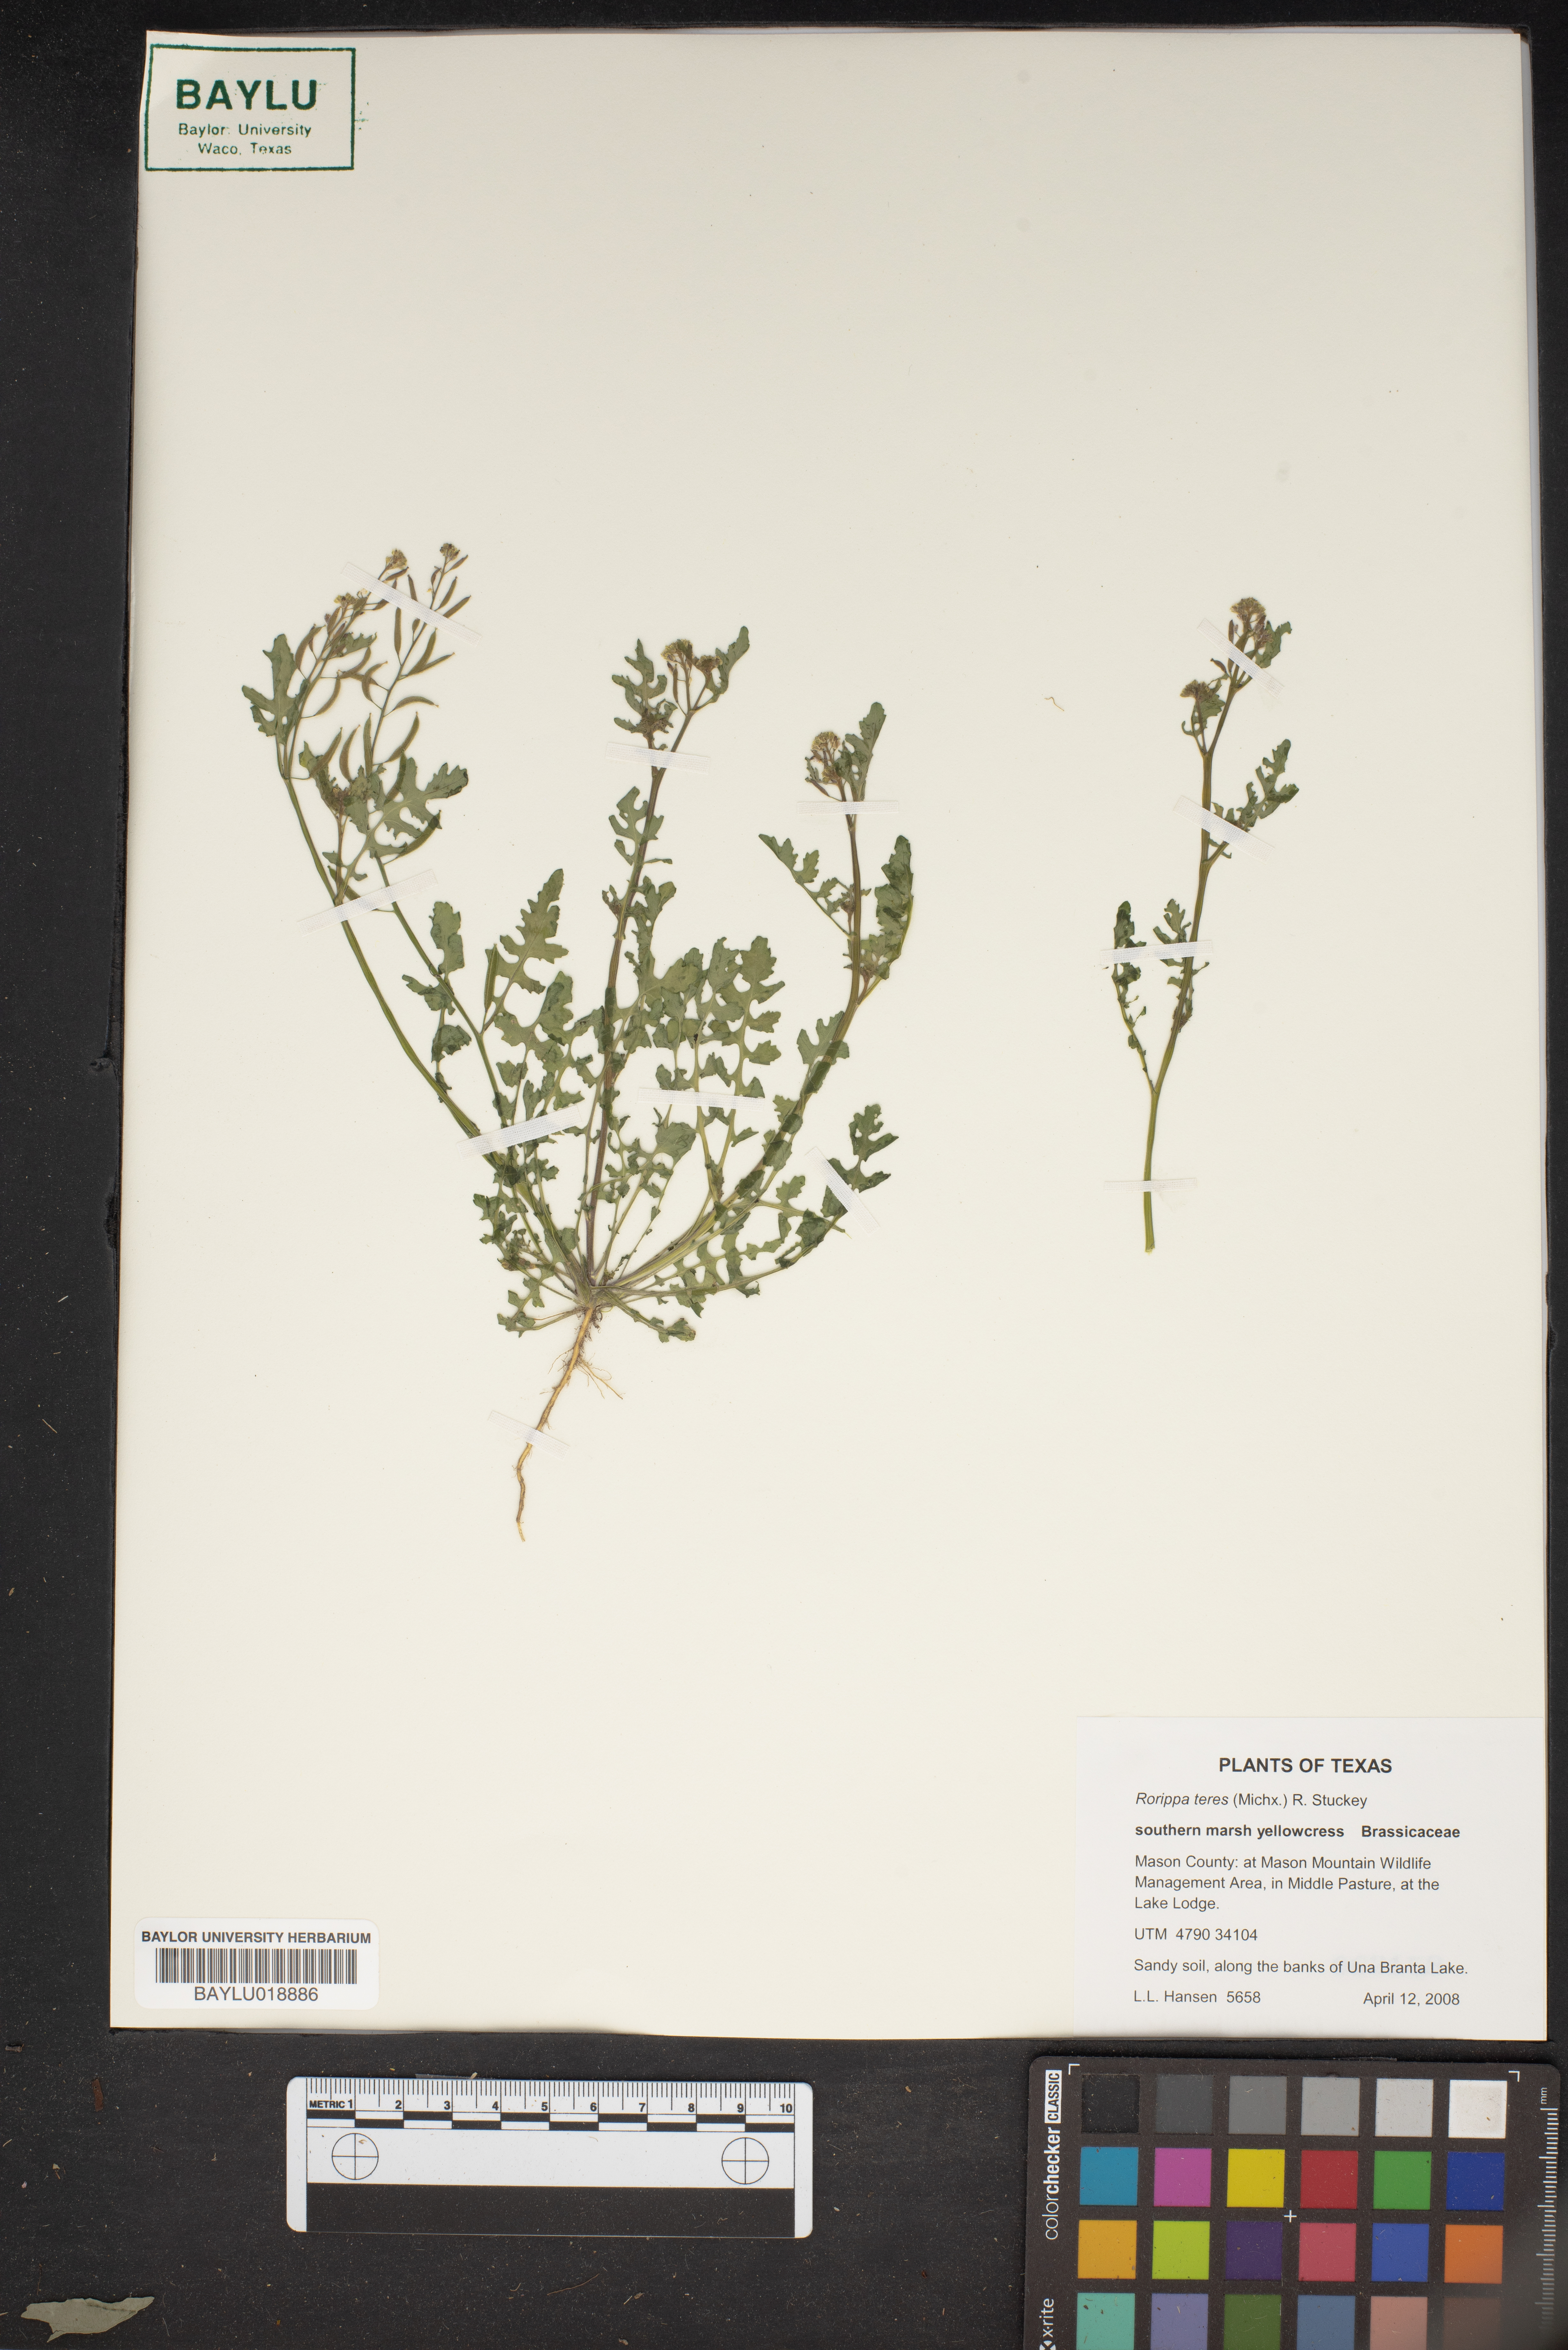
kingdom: Plantae
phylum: Tracheophyta
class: Magnoliopsida
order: Brassicales
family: Brassicaceae
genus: Rorippa
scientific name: Rorippa teres
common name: Southern marsh yellowcress
